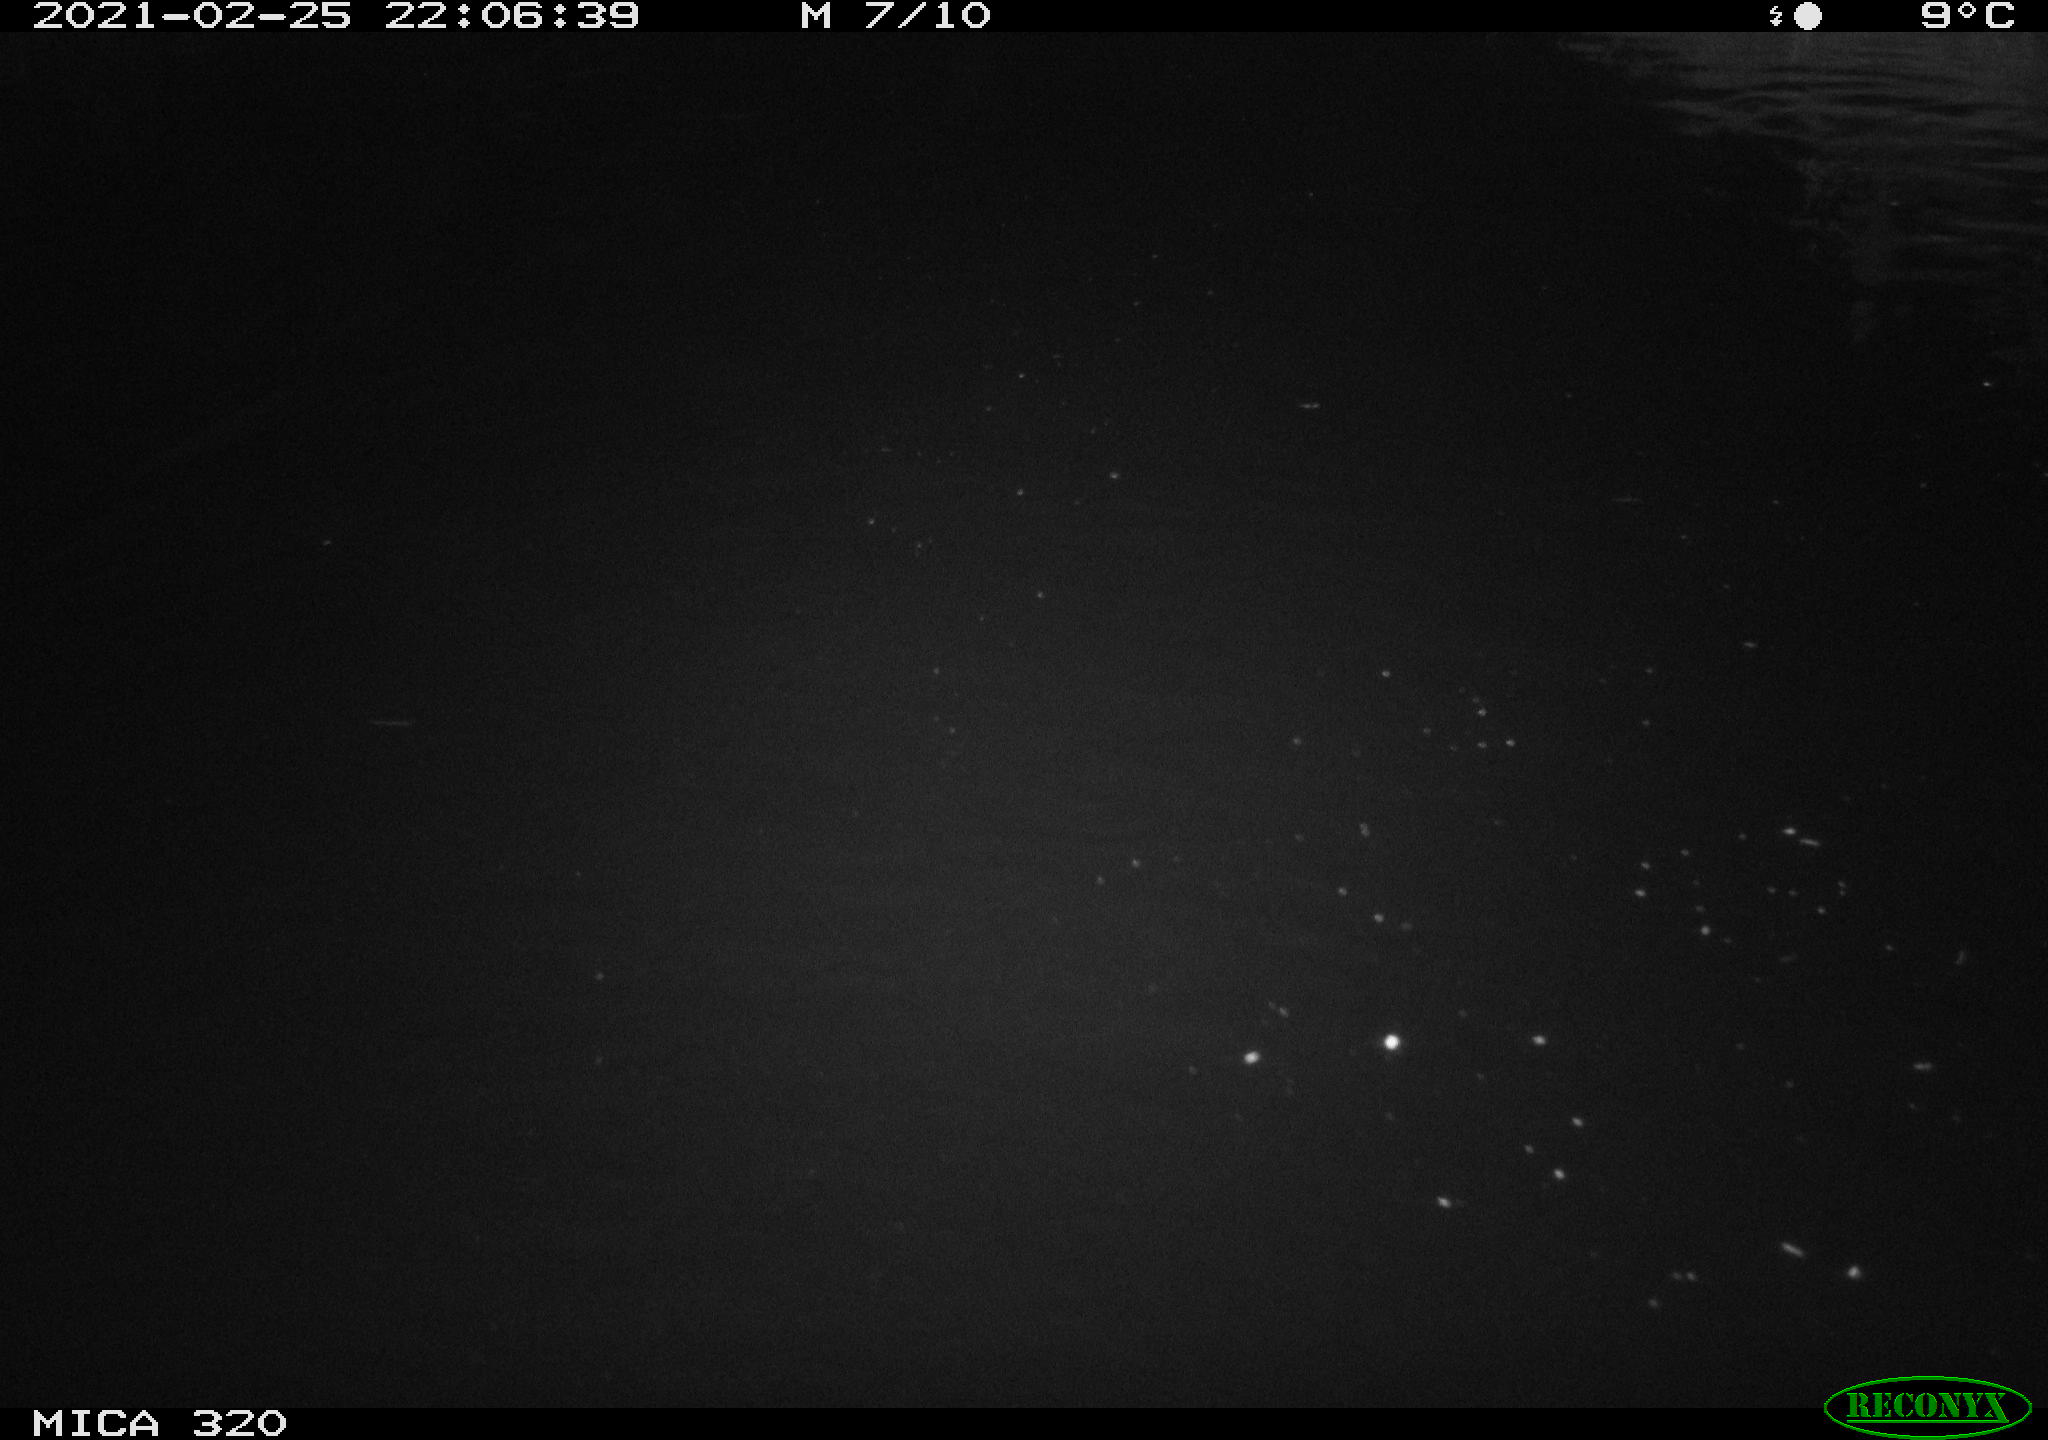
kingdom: Animalia
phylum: Chordata
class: Mammalia
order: Rodentia
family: Muridae
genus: Rattus
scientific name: Rattus norvegicus
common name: Brown rat
